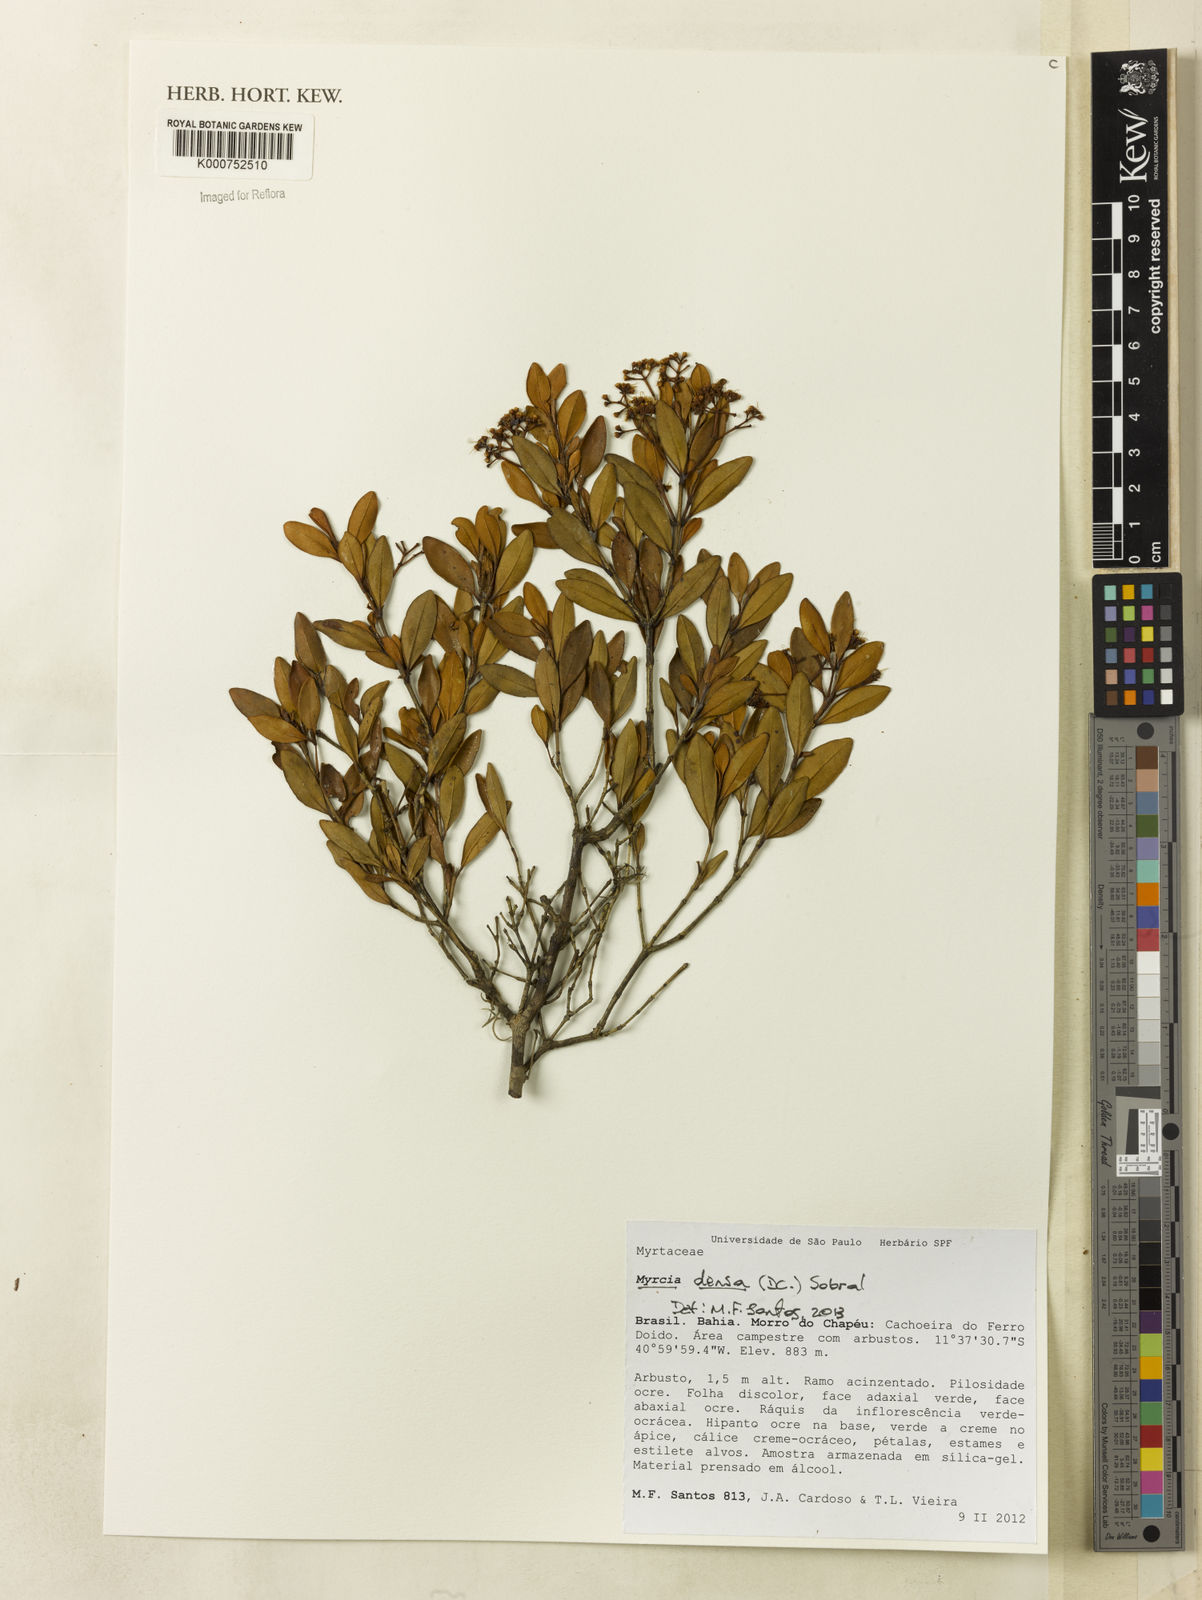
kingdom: Plantae
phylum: Tracheophyta
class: Magnoliopsida
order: Myrtales
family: Myrtaceae
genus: Myrcia
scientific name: Myrcia densa
